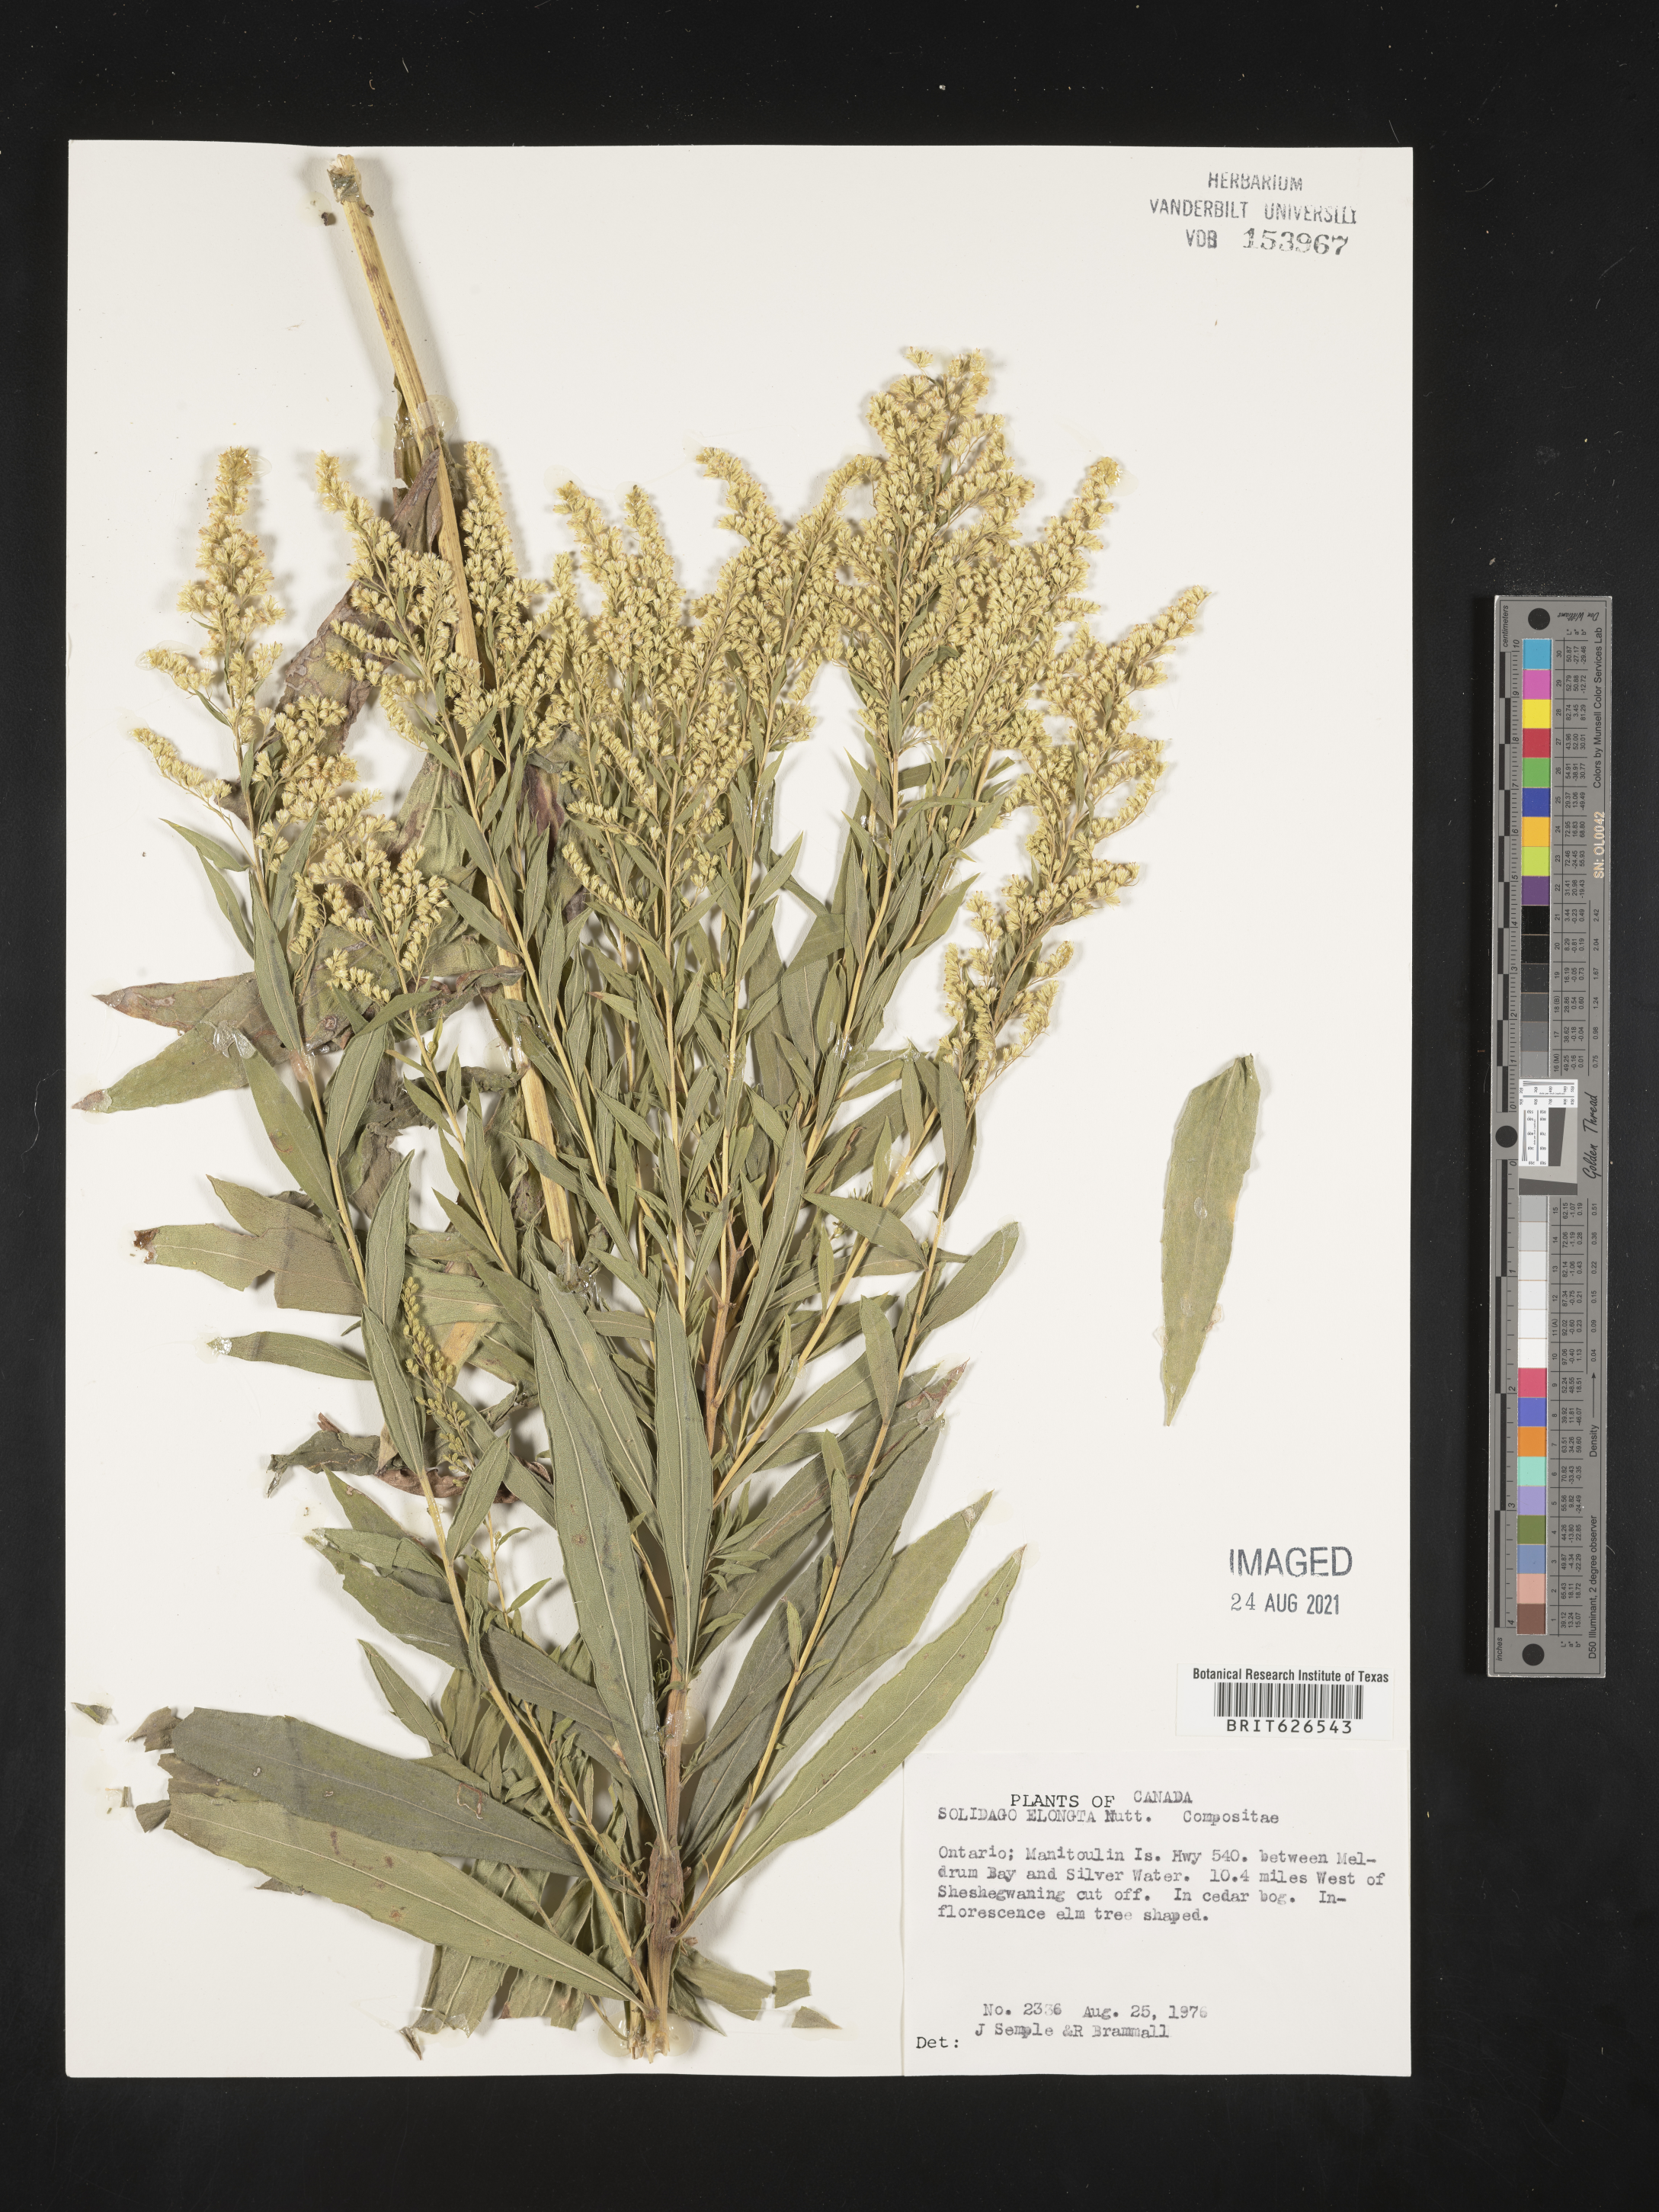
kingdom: Plantae
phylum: Tracheophyta
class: Magnoliopsida
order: Asterales
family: Asteraceae
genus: Solidago
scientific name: Solidago elongata
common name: Cascade canada goldenrod
